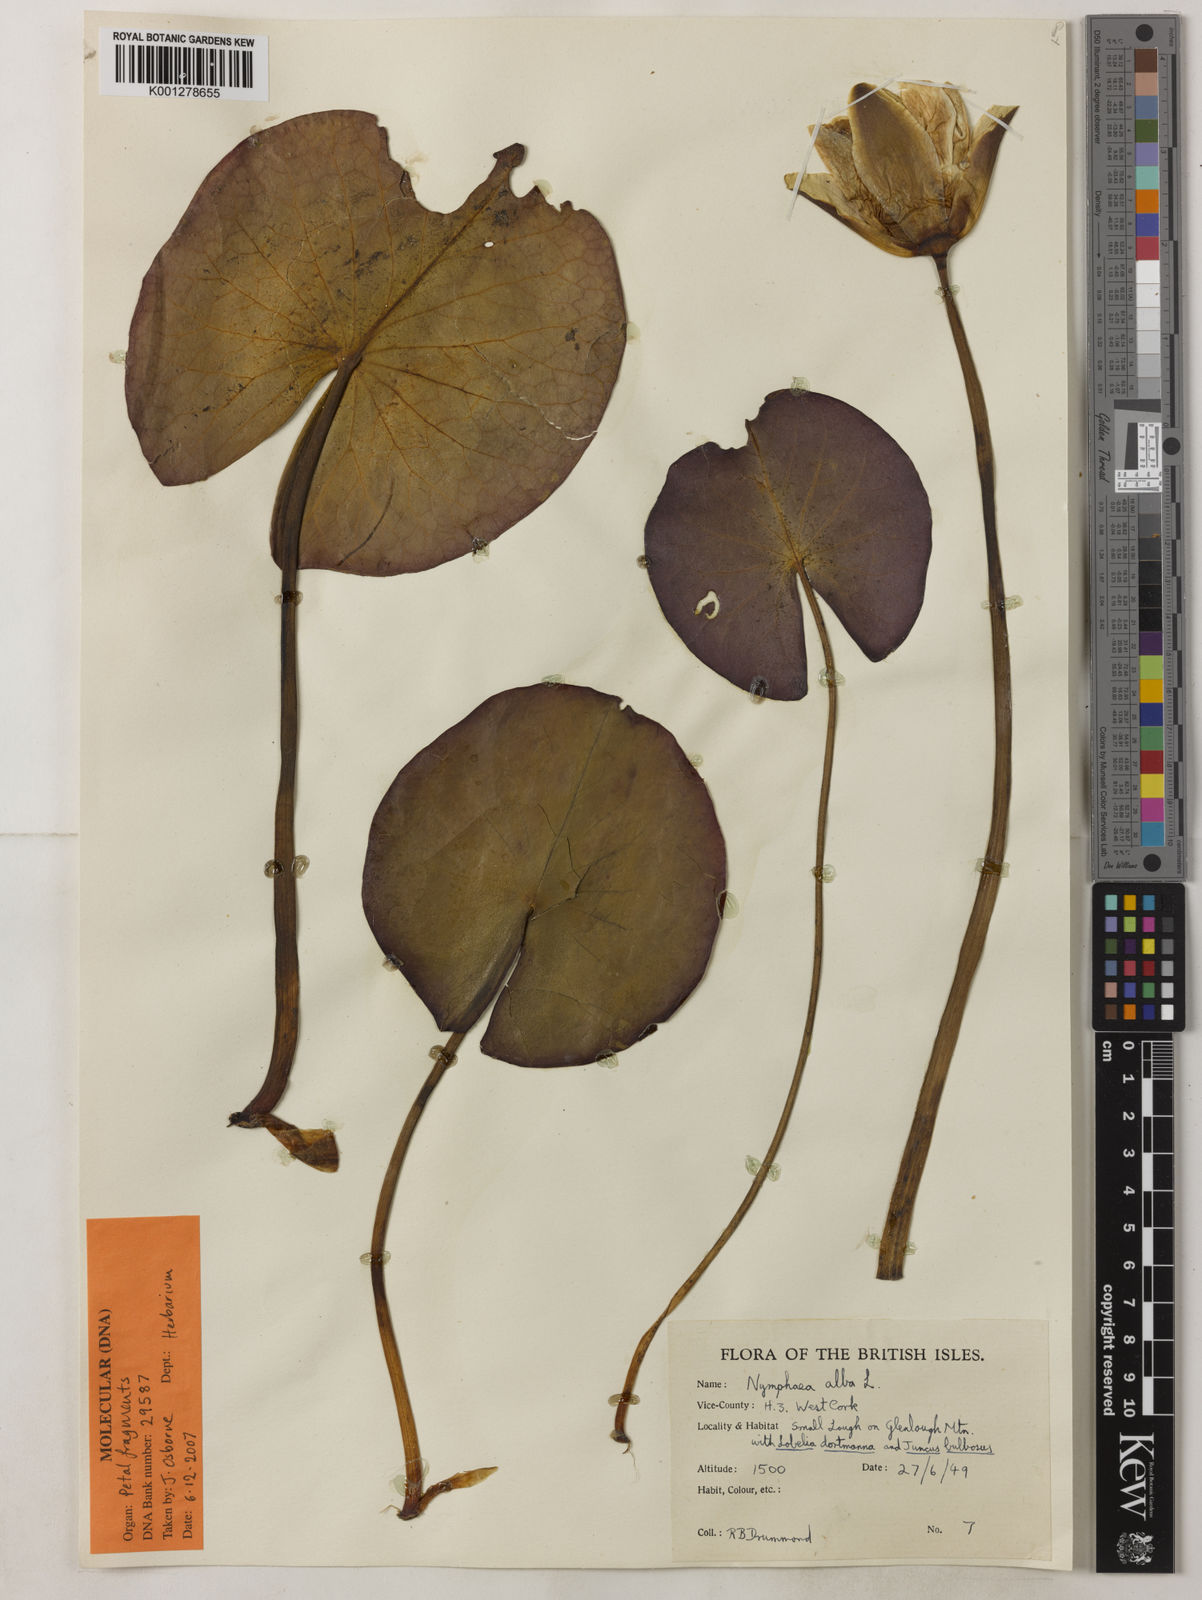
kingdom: Plantae
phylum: Tracheophyta
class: Magnoliopsida
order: Nymphaeales
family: Nymphaeaceae
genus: Nymphaea
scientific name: Nymphaea alba
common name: White water-lily
